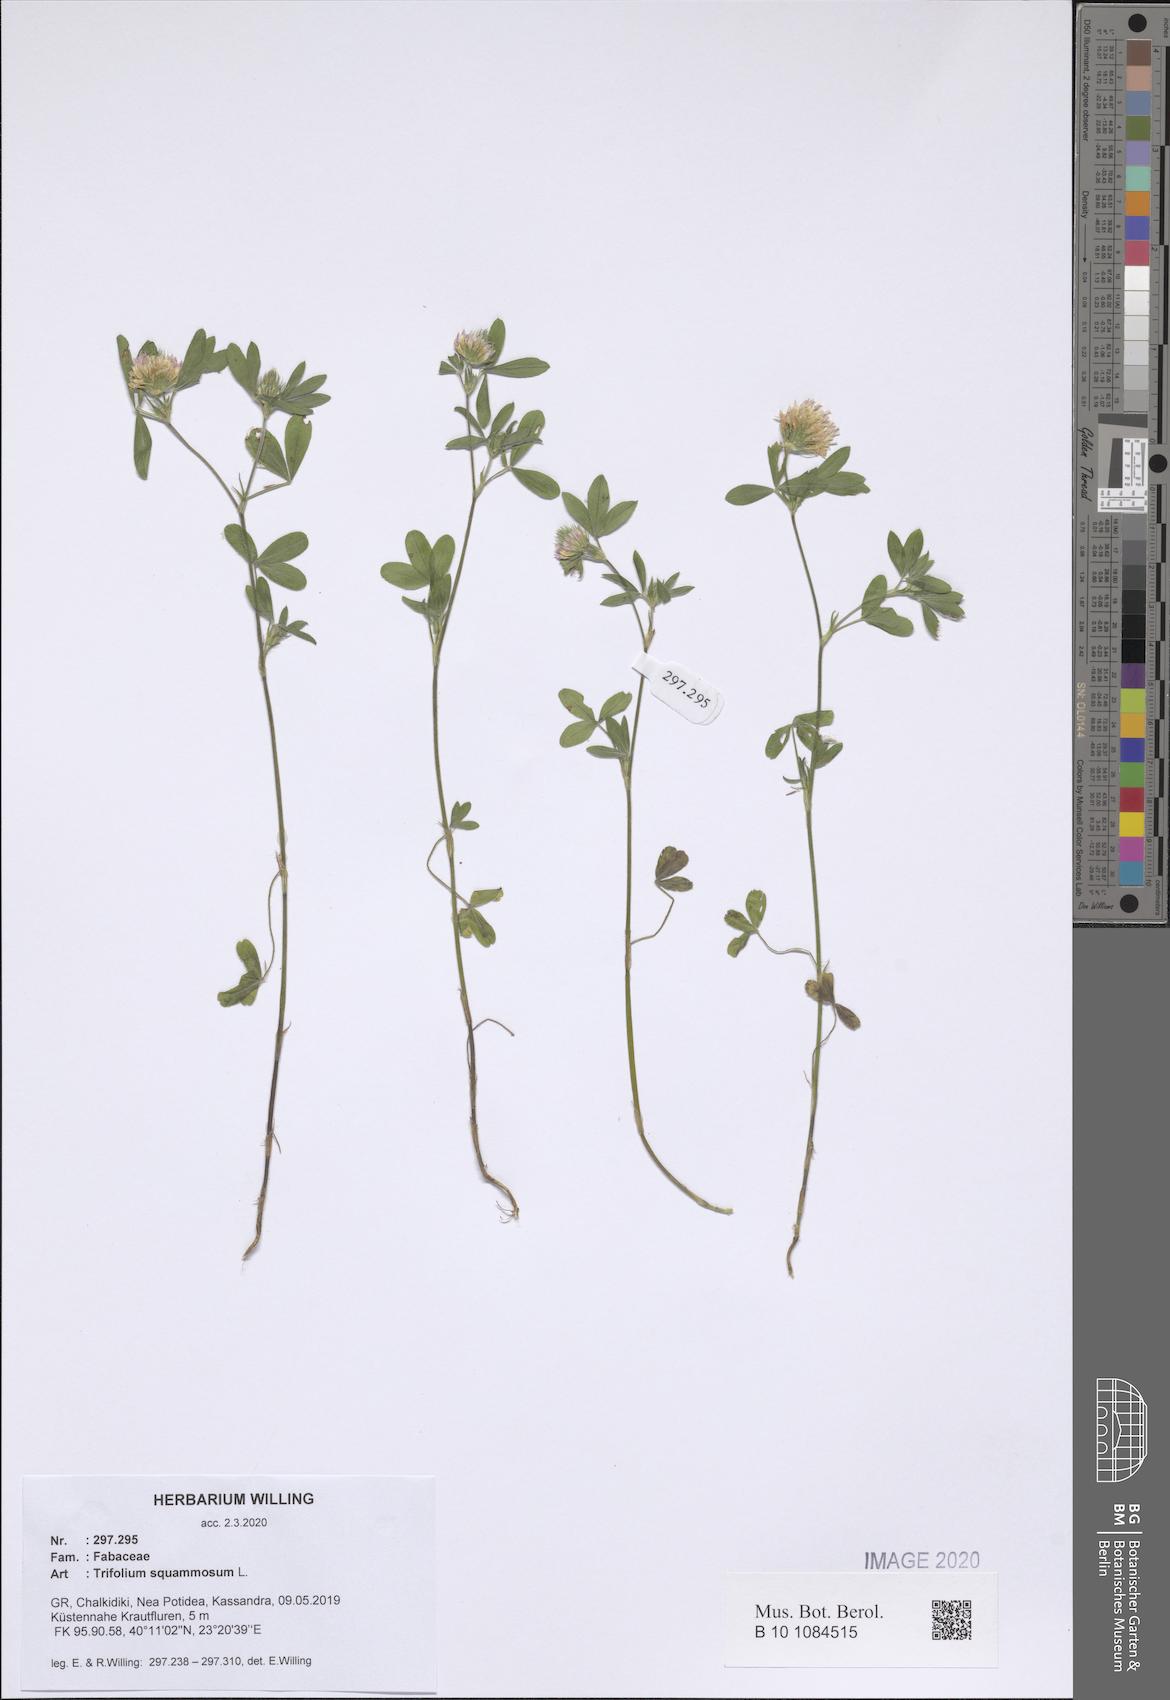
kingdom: Plantae
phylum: Tracheophyta
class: Magnoliopsida
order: Fabales
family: Fabaceae
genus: Trifolium
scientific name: Trifolium squamosum
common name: Sea clover
